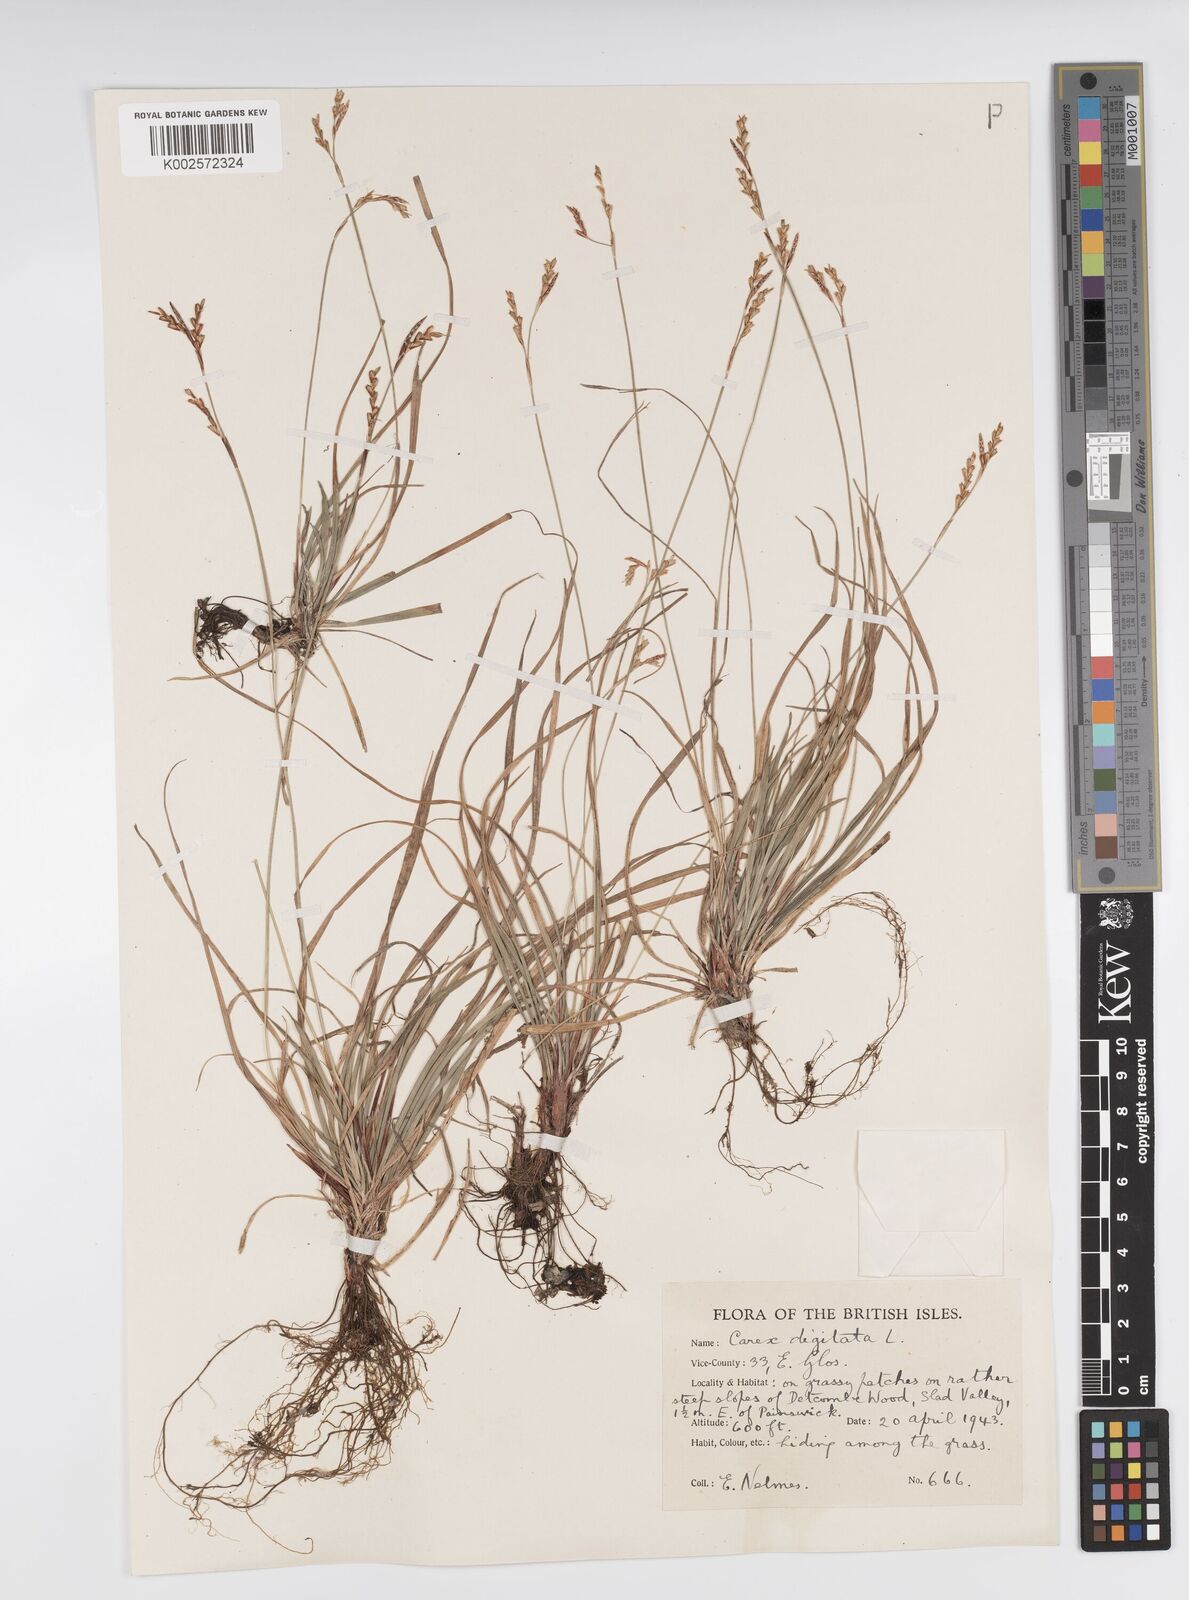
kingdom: Plantae
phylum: Tracheophyta
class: Liliopsida
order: Poales
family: Cyperaceae
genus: Carex
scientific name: Carex digitata
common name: Fingered sedge
